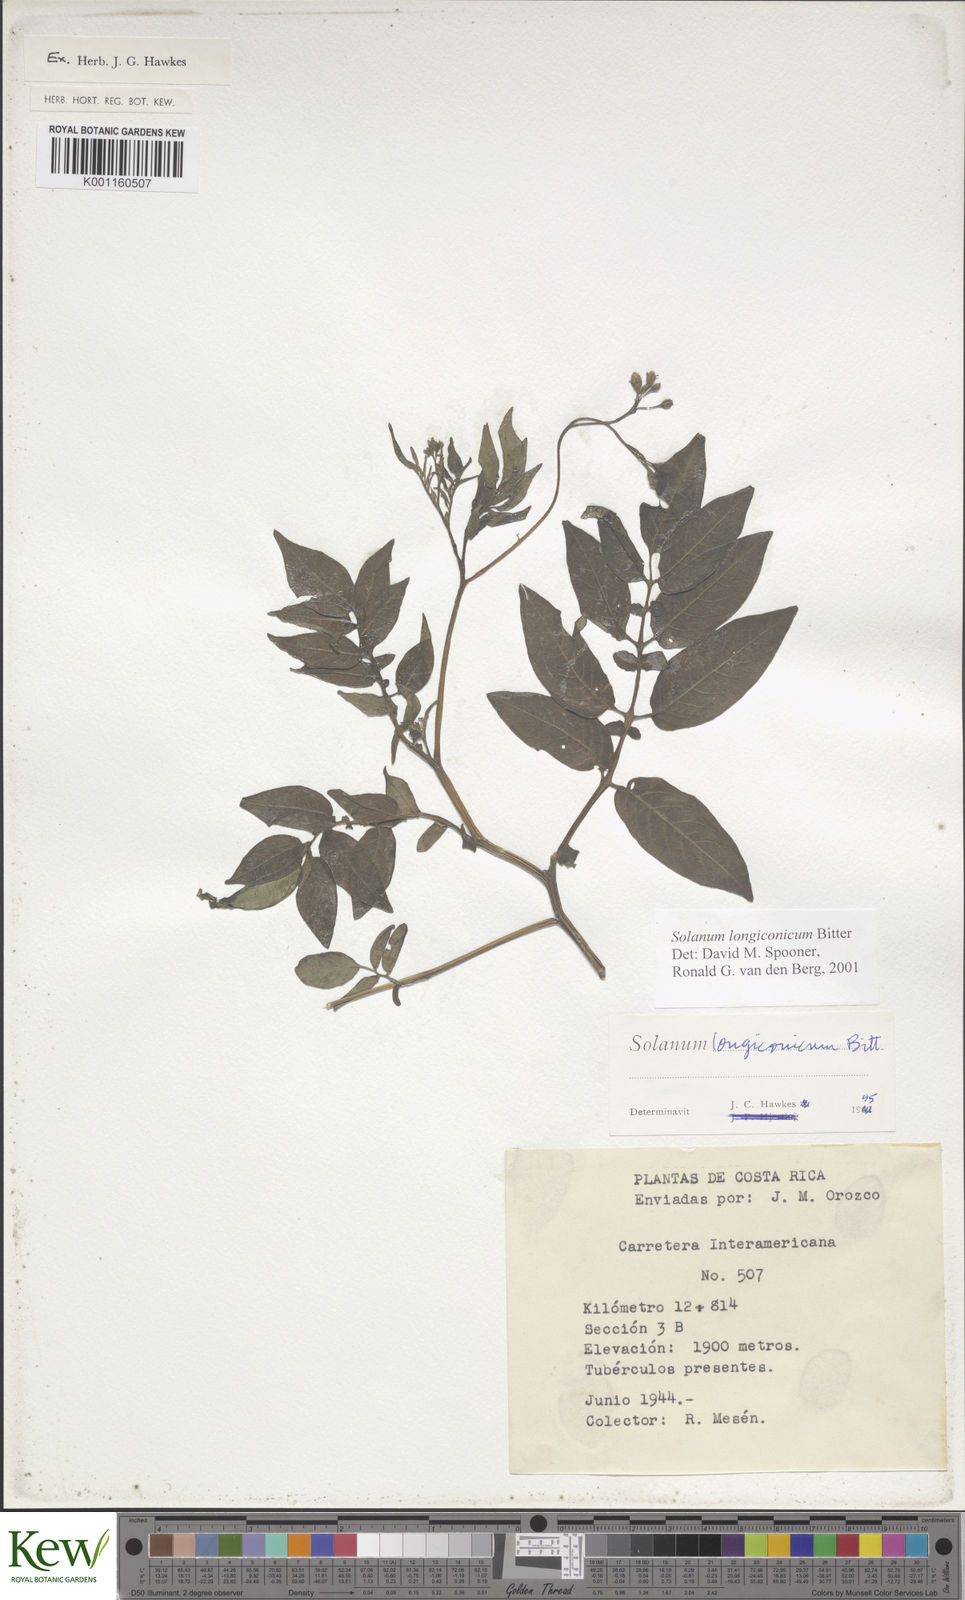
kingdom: Plantae
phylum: Tracheophyta
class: Magnoliopsida
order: Solanales
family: Solanaceae
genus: Solanum
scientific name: Solanum longiconicum
